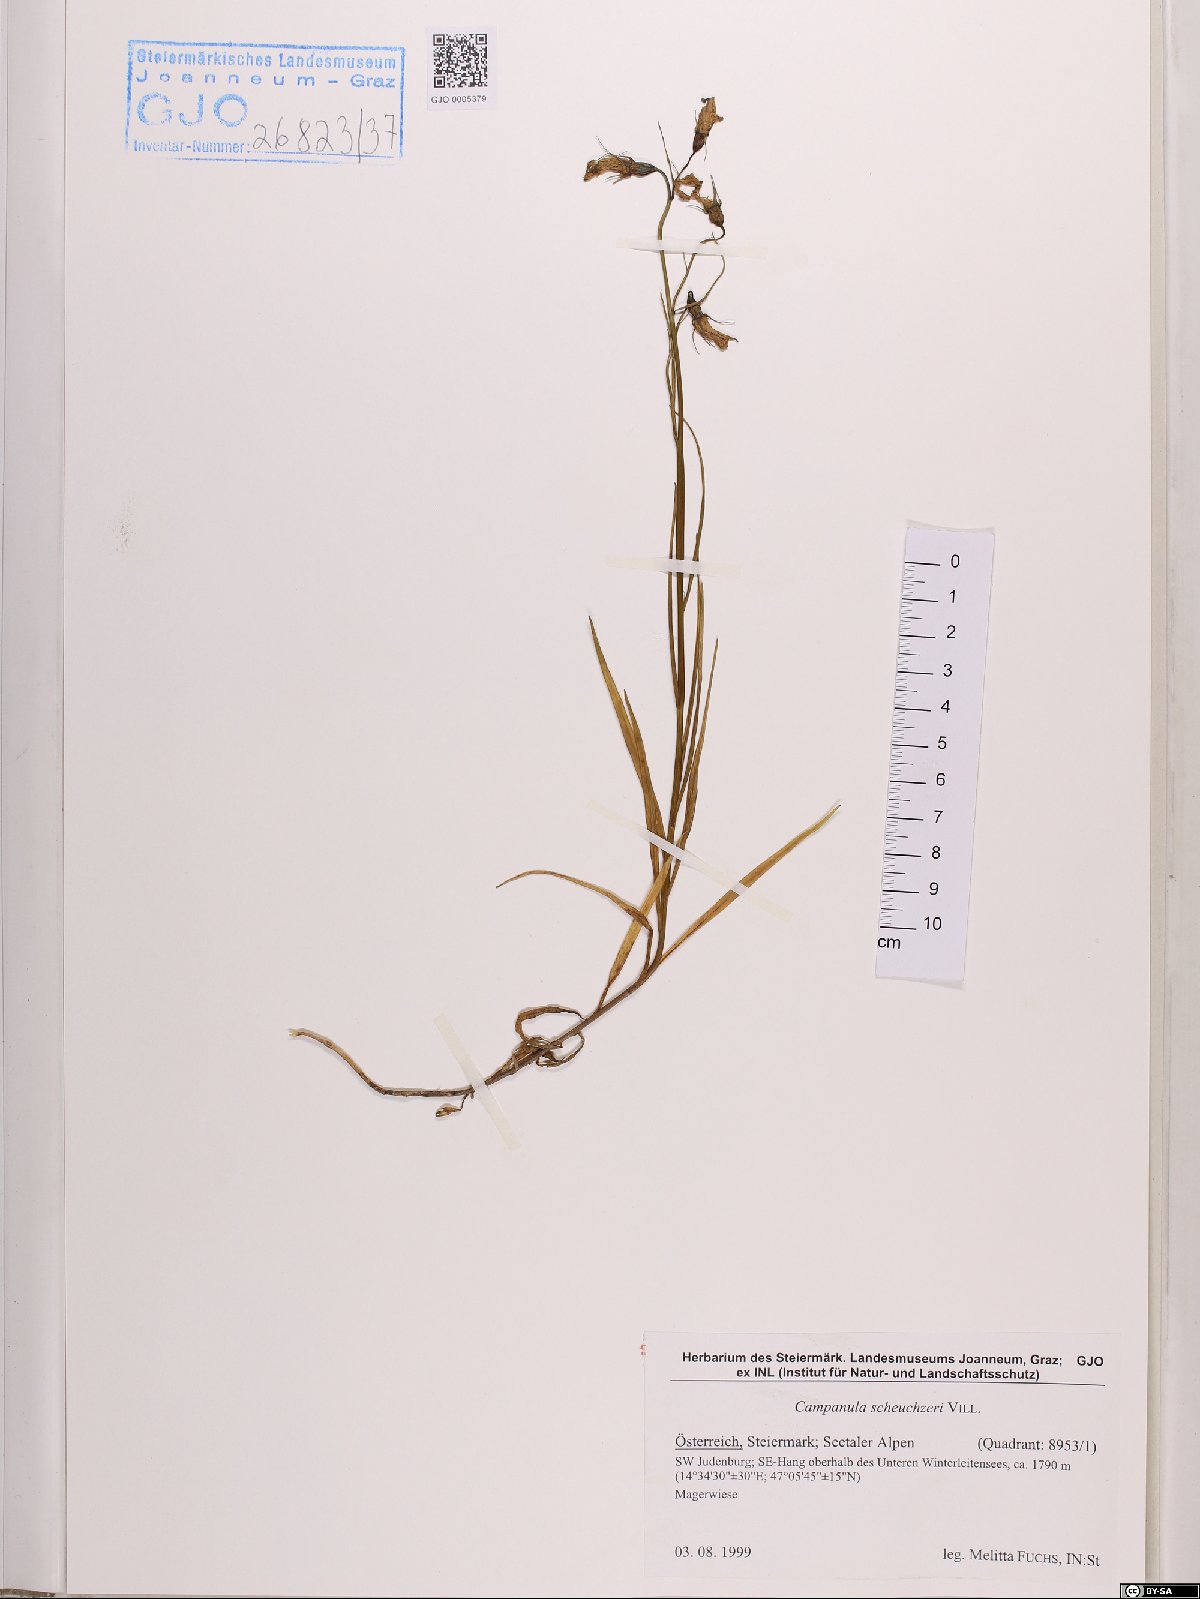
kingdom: Plantae
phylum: Tracheophyta
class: Magnoliopsida
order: Asterales
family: Campanulaceae
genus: Campanula
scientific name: Campanula scheuchzeri
